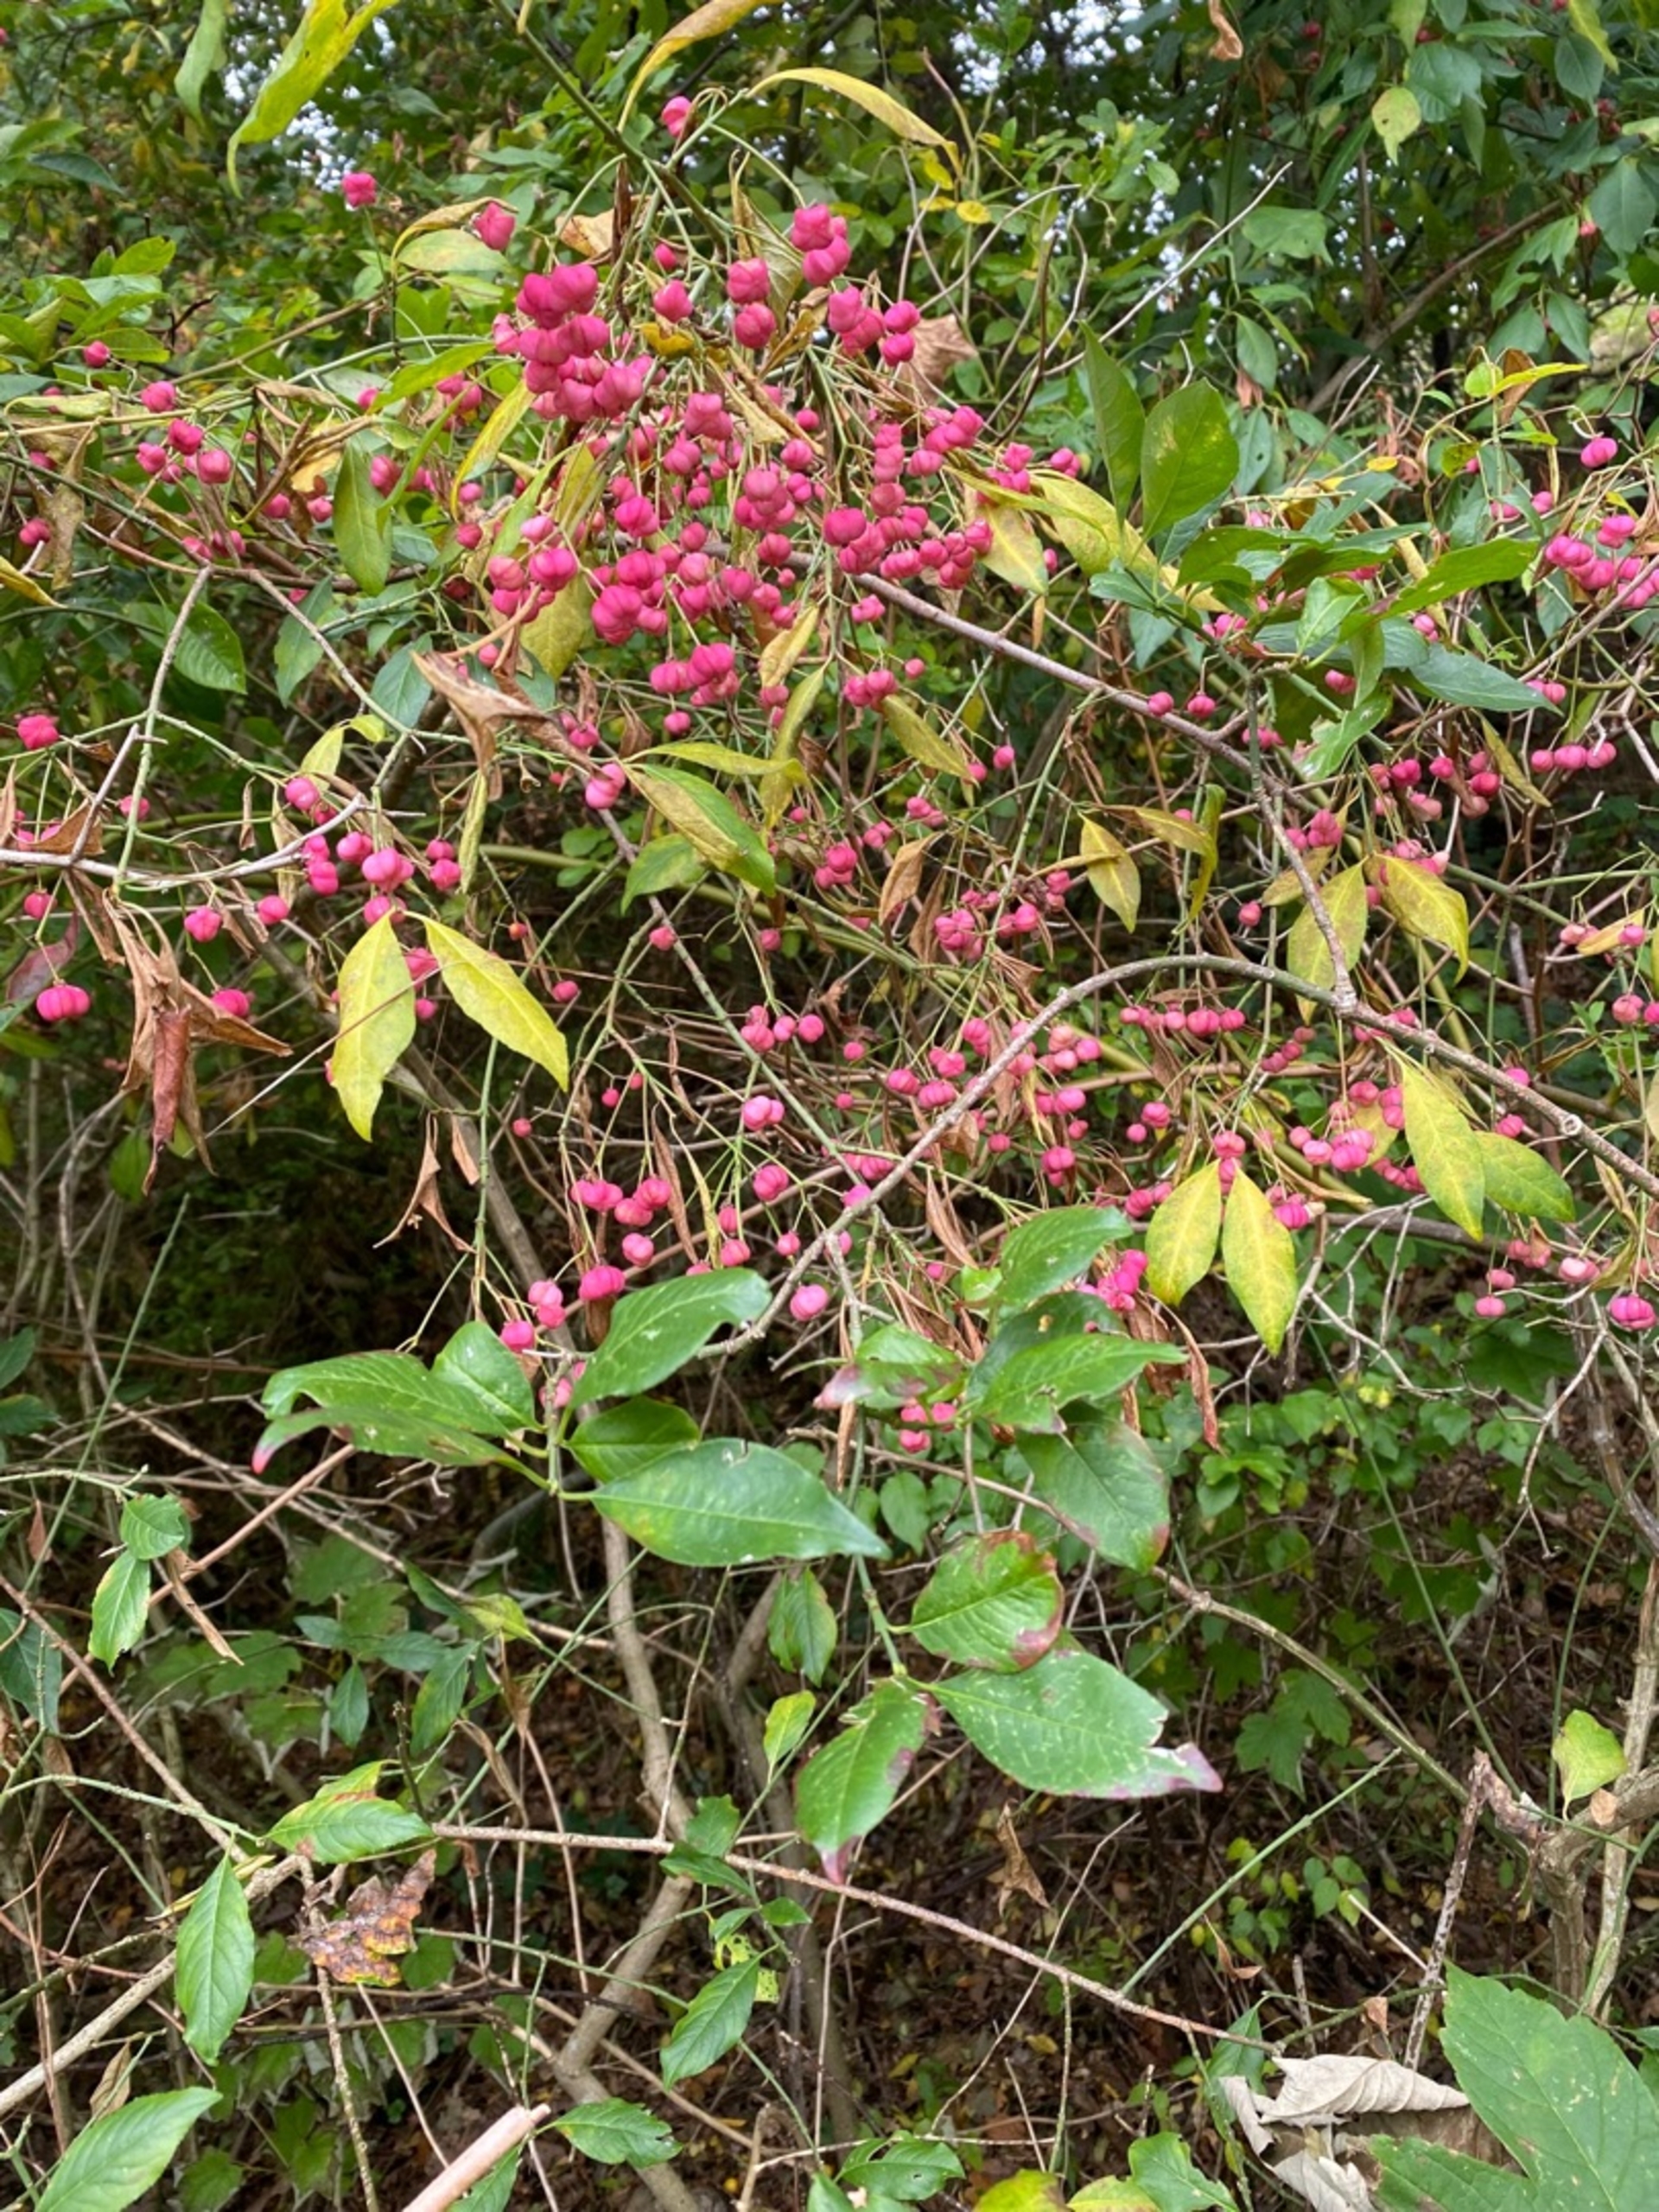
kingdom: Plantae
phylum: Tracheophyta
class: Magnoliopsida
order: Celastrales
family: Celastraceae
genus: Euonymus
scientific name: Euonymus europaeus
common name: Benved
